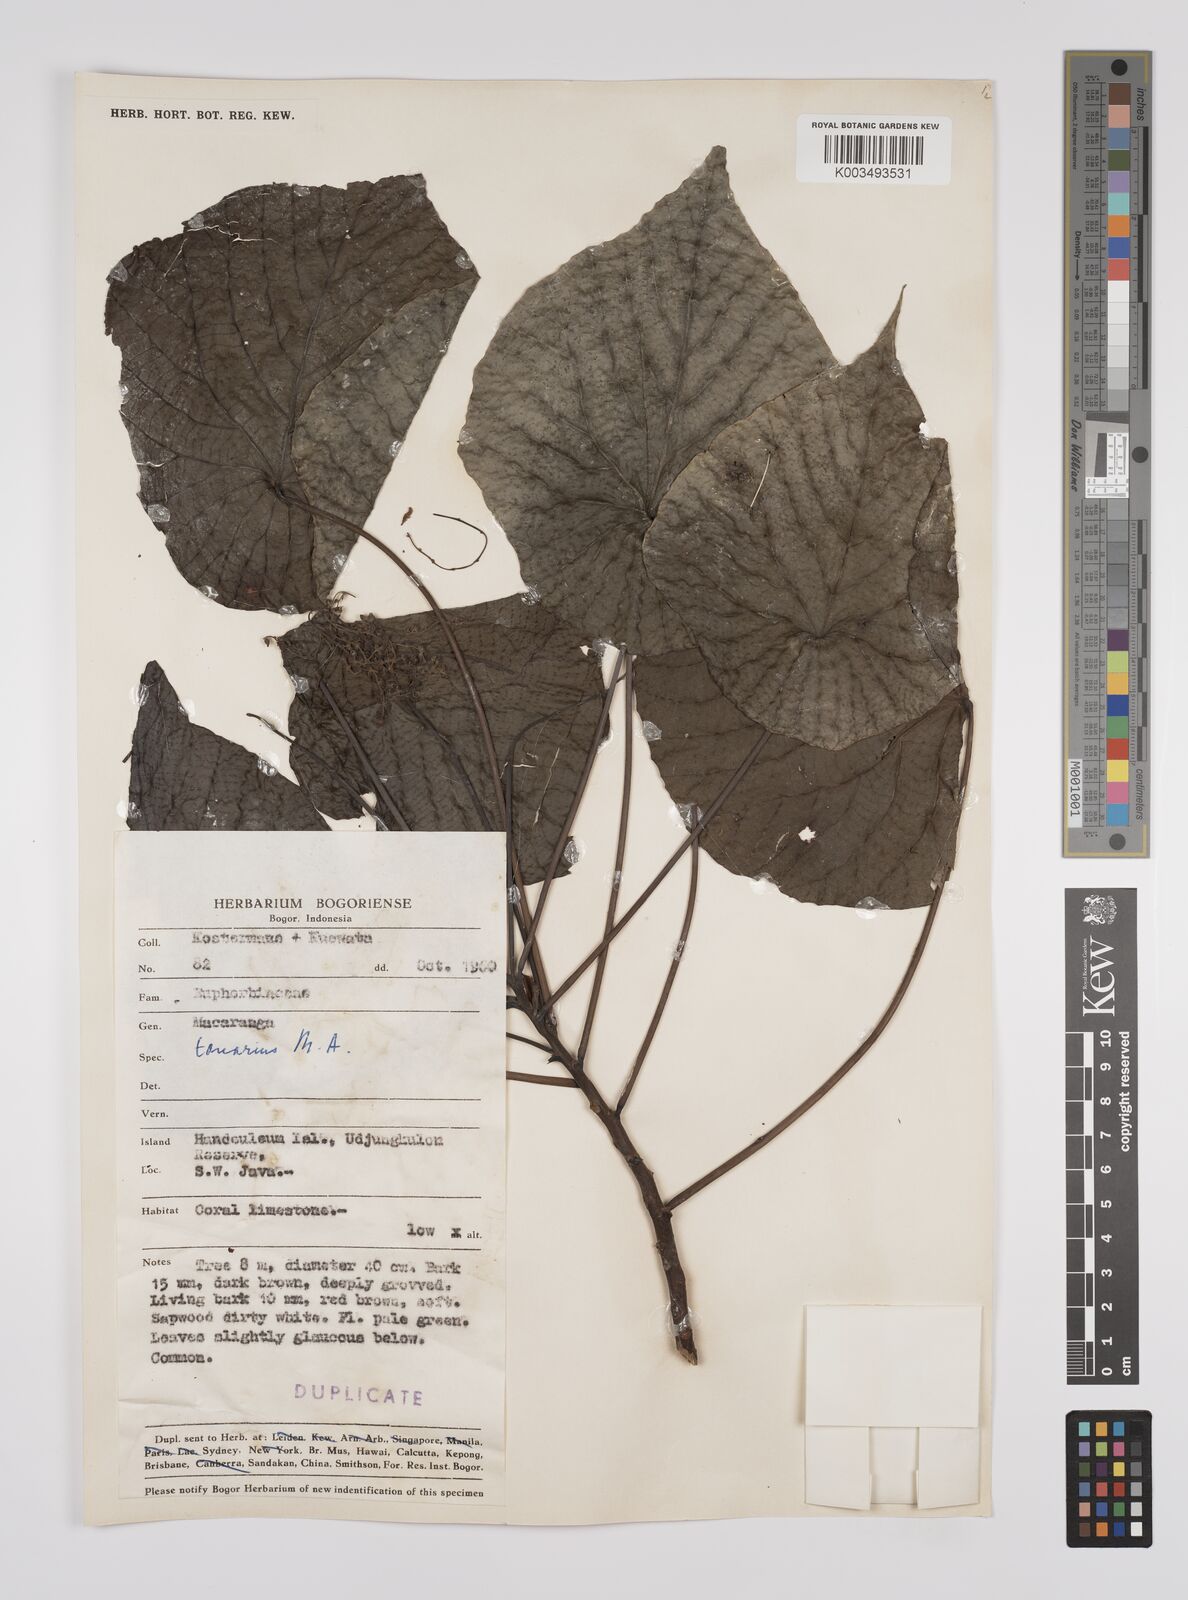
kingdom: Plantae
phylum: Tracheophyta
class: Magnoliopsida
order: Malpighiales
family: Euphorbiaceae
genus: Macaranga
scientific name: Macaranga tanarius
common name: Parasol leaf tree
